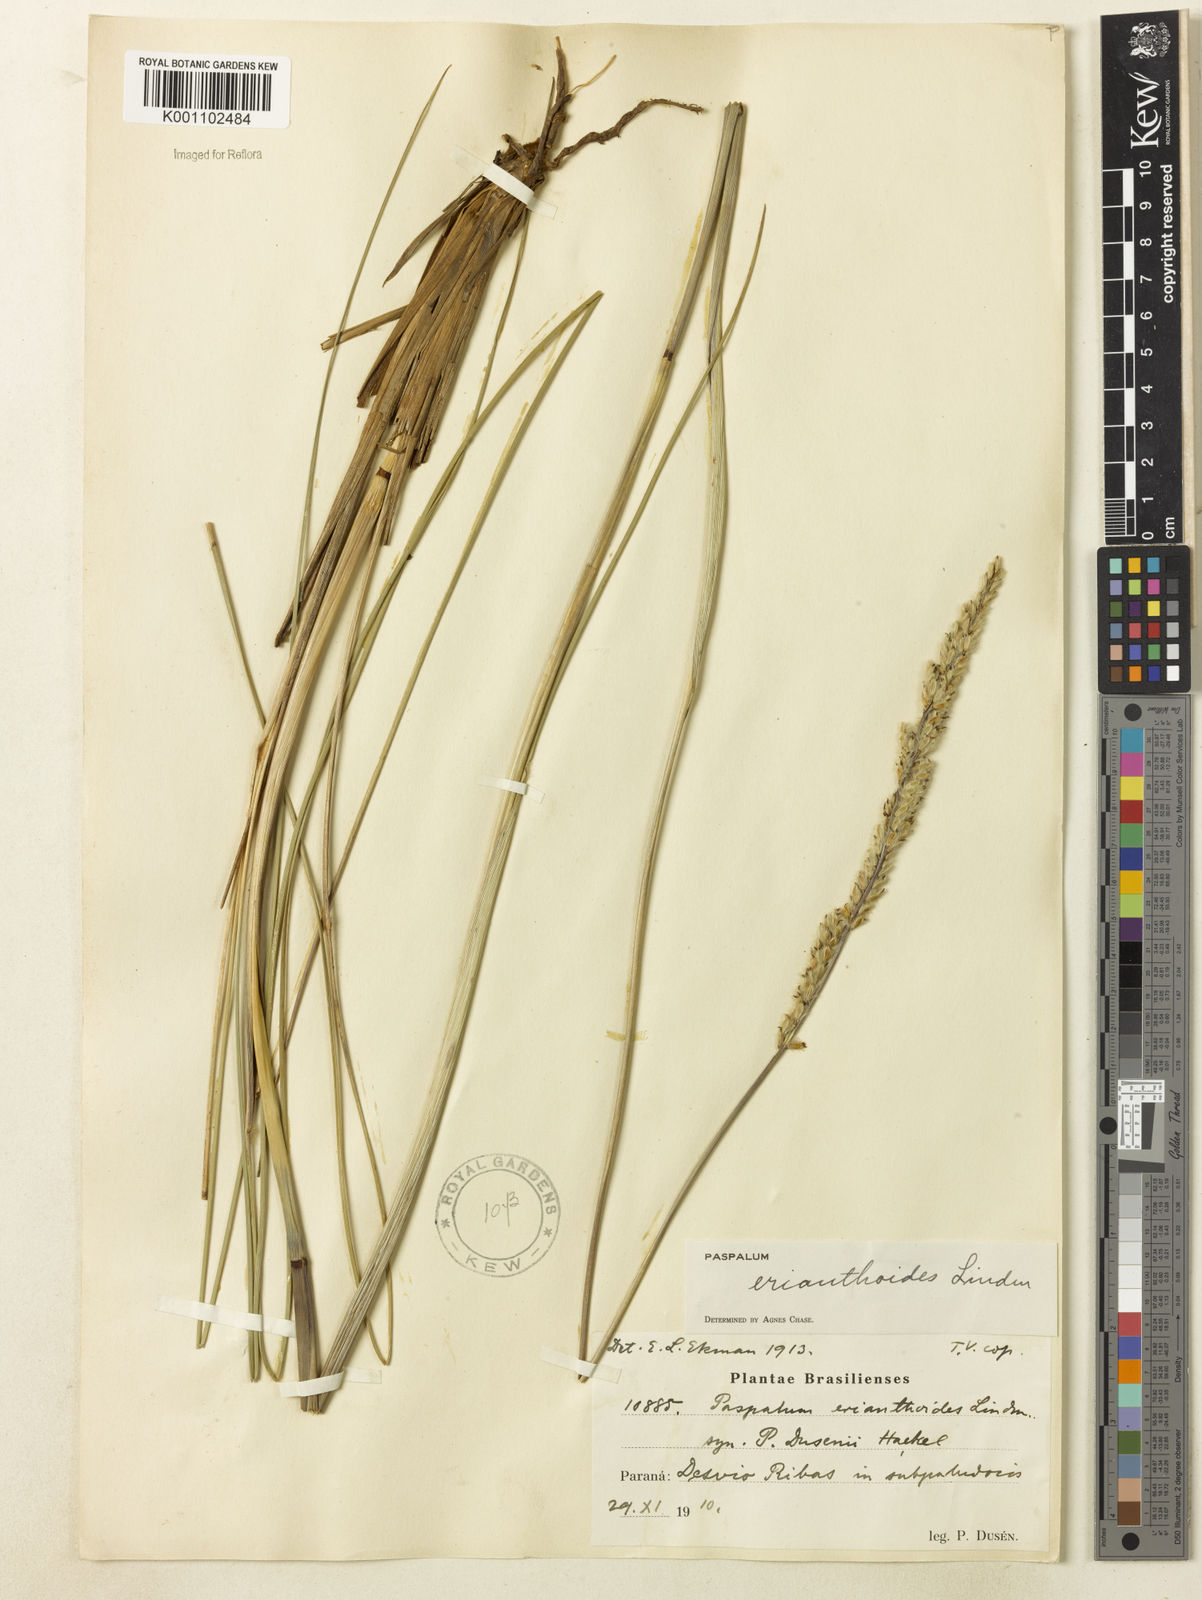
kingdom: Plantae
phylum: Tracheophyta
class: Liliopsida
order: Poales
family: Poaceae
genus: Paspalum
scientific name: Paspalum erianthoides
